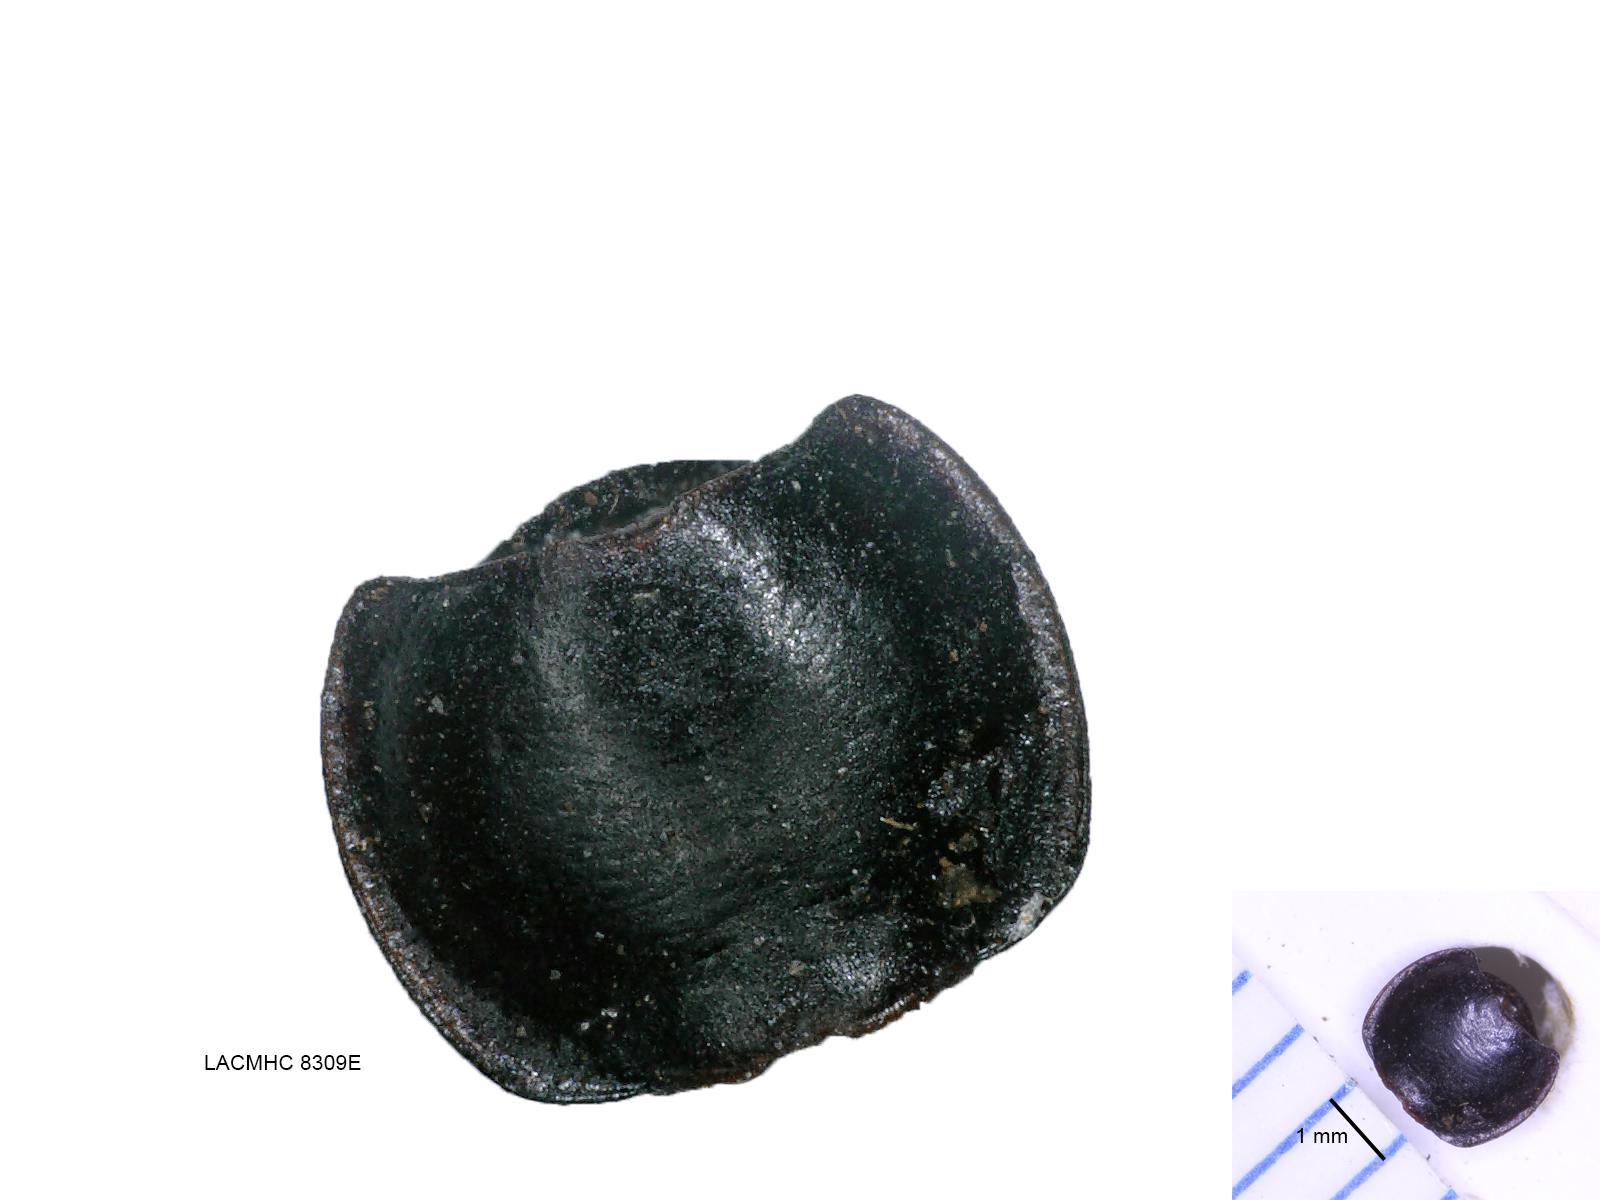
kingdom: Animalia
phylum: Arthropoda
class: Insecta
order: Coleoptera
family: Carabidae
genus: Tanystoma
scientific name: Tanystoma maculicolle
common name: Tule beetle
